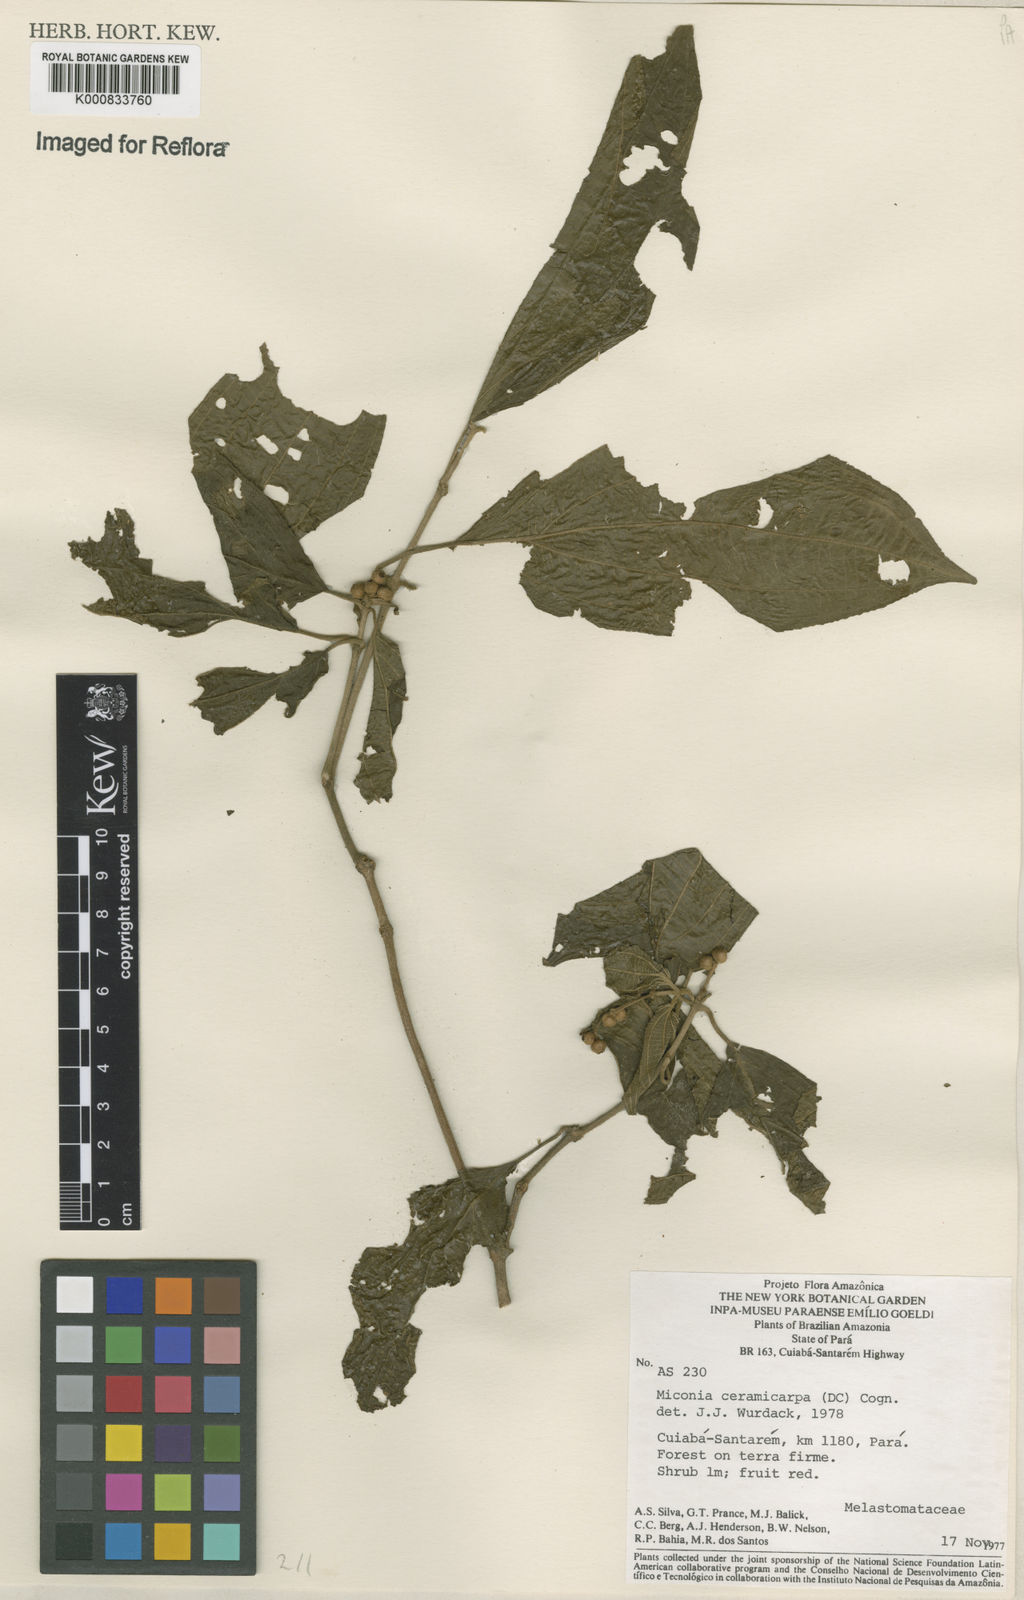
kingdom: Plantae
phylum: Tracheophyta
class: Magnoliopsida
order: Myrtales
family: Melastomataceae
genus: Miconia
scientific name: Miconia ceramicarpa
